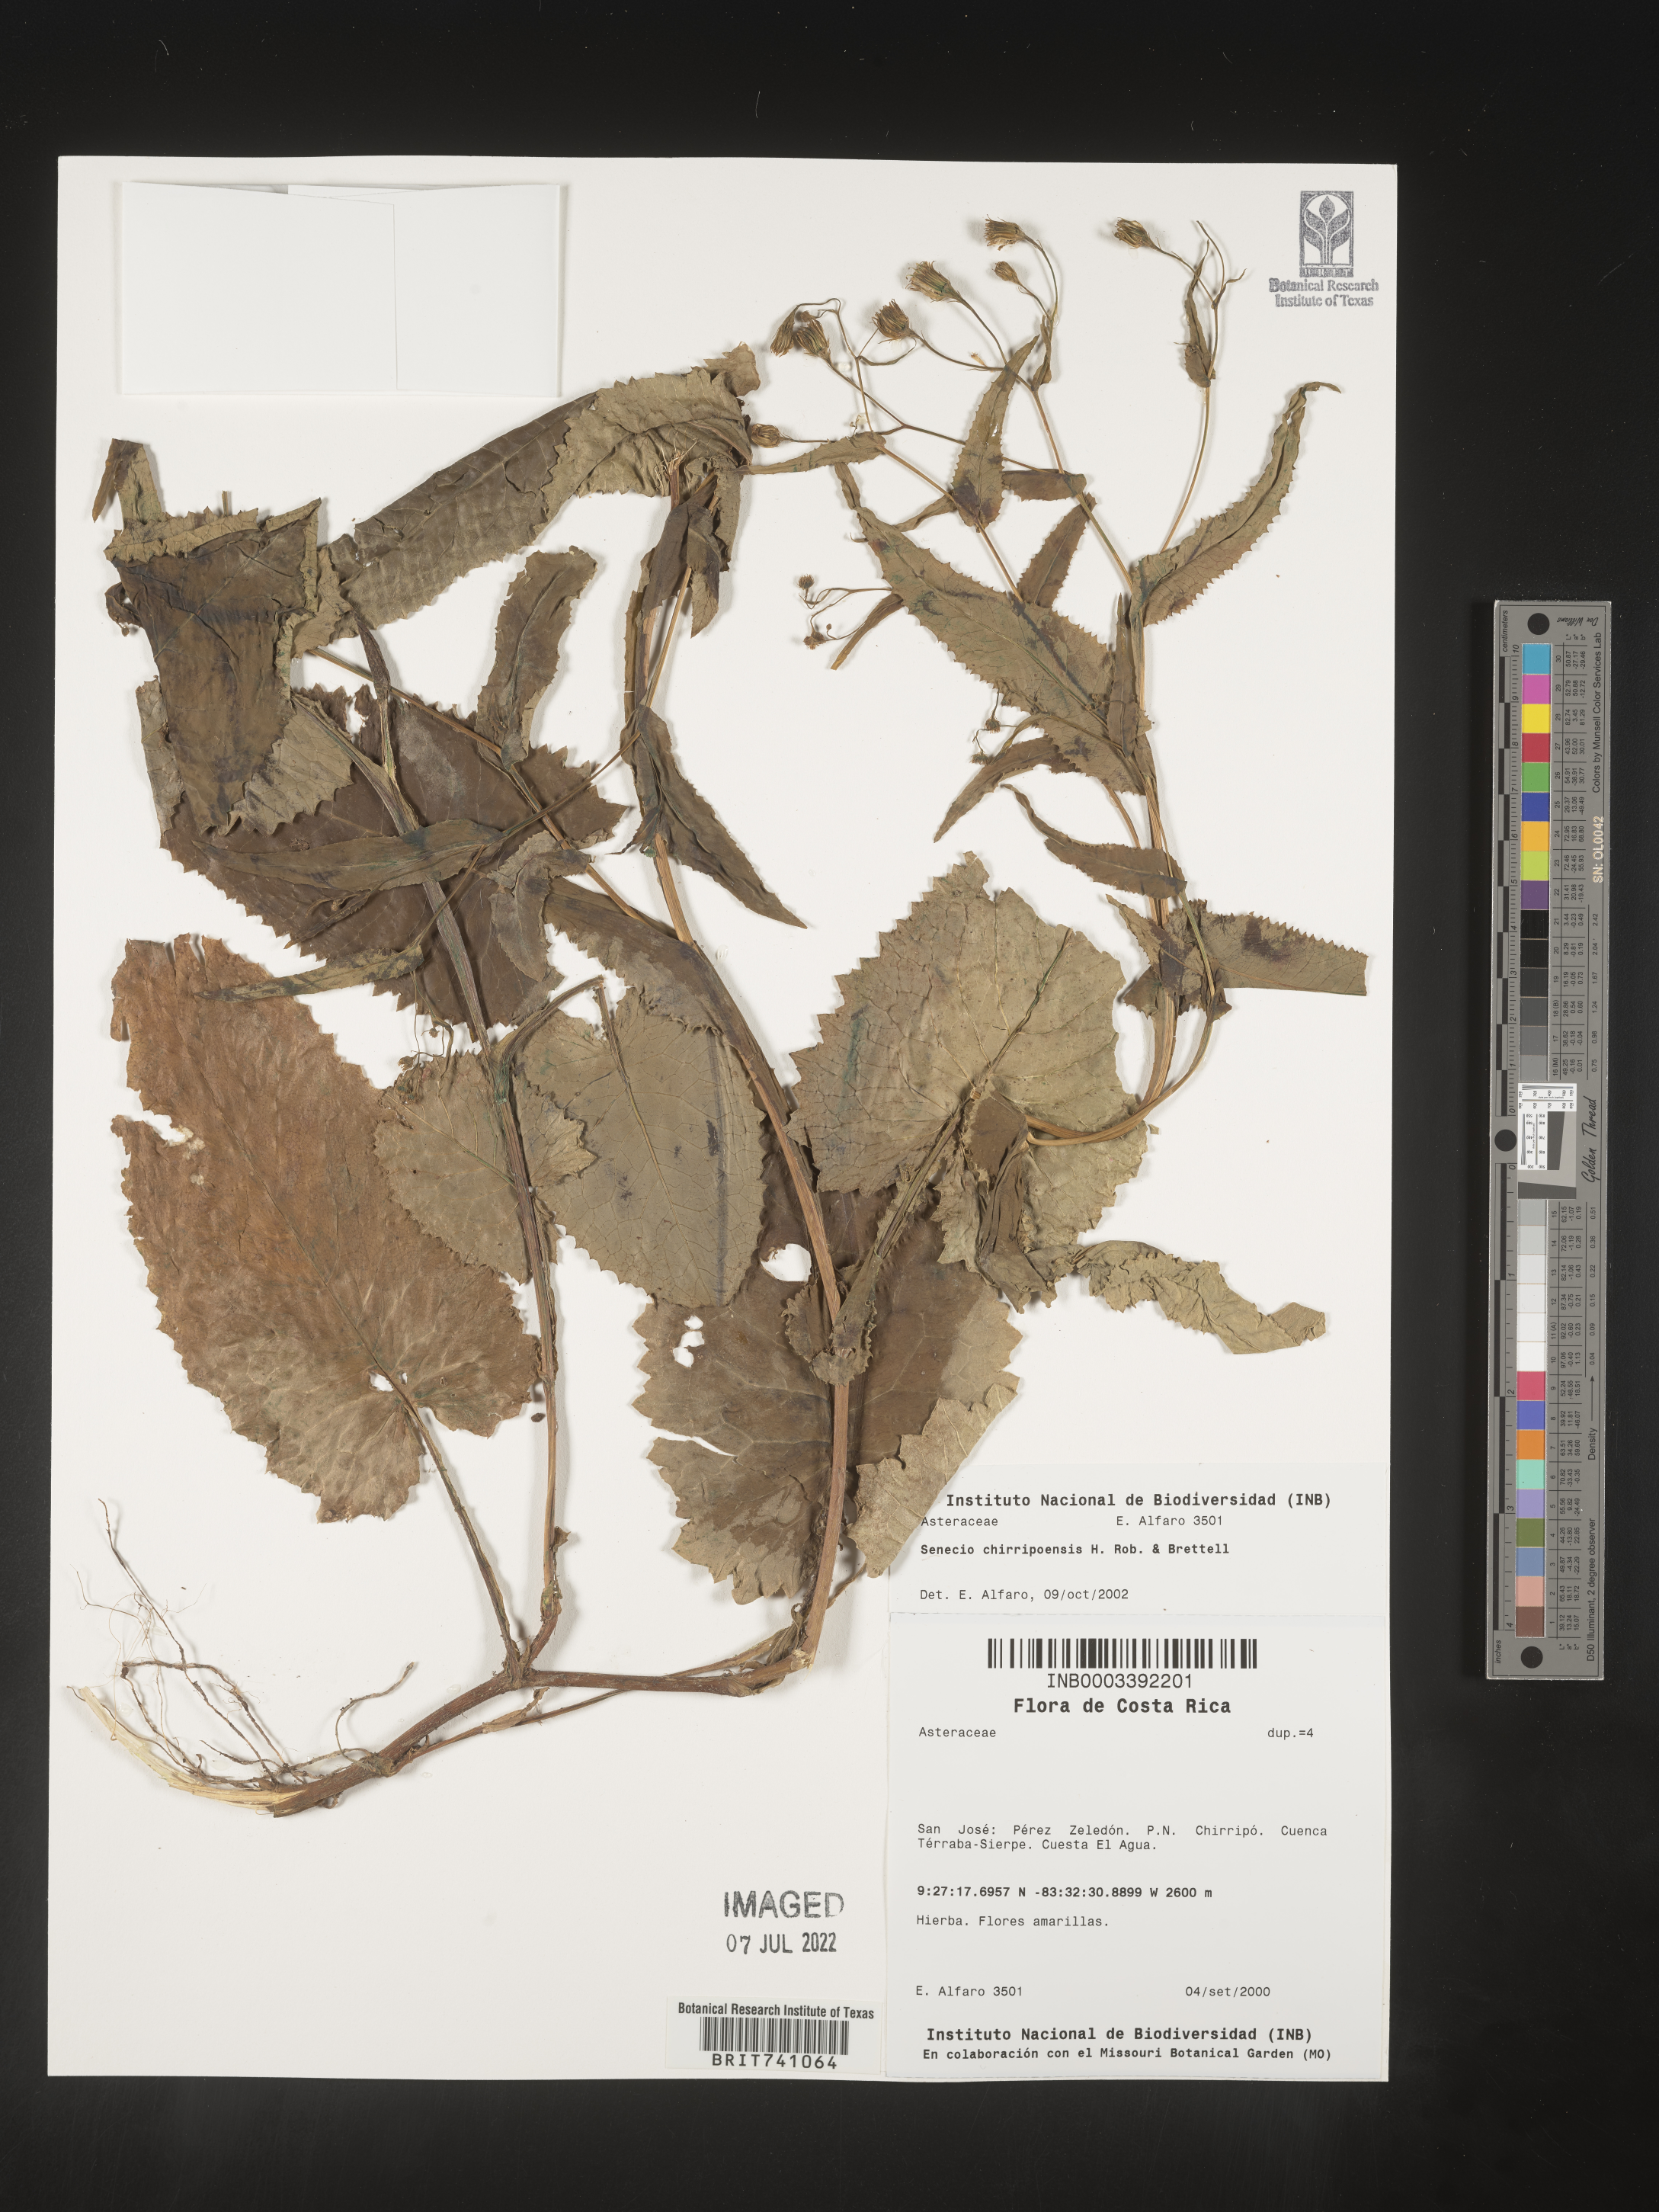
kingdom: Plantae
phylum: Tracheophyta
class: Magnoliopsida
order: Asterales
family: Asteraceae
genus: Senecio
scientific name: Senecio
